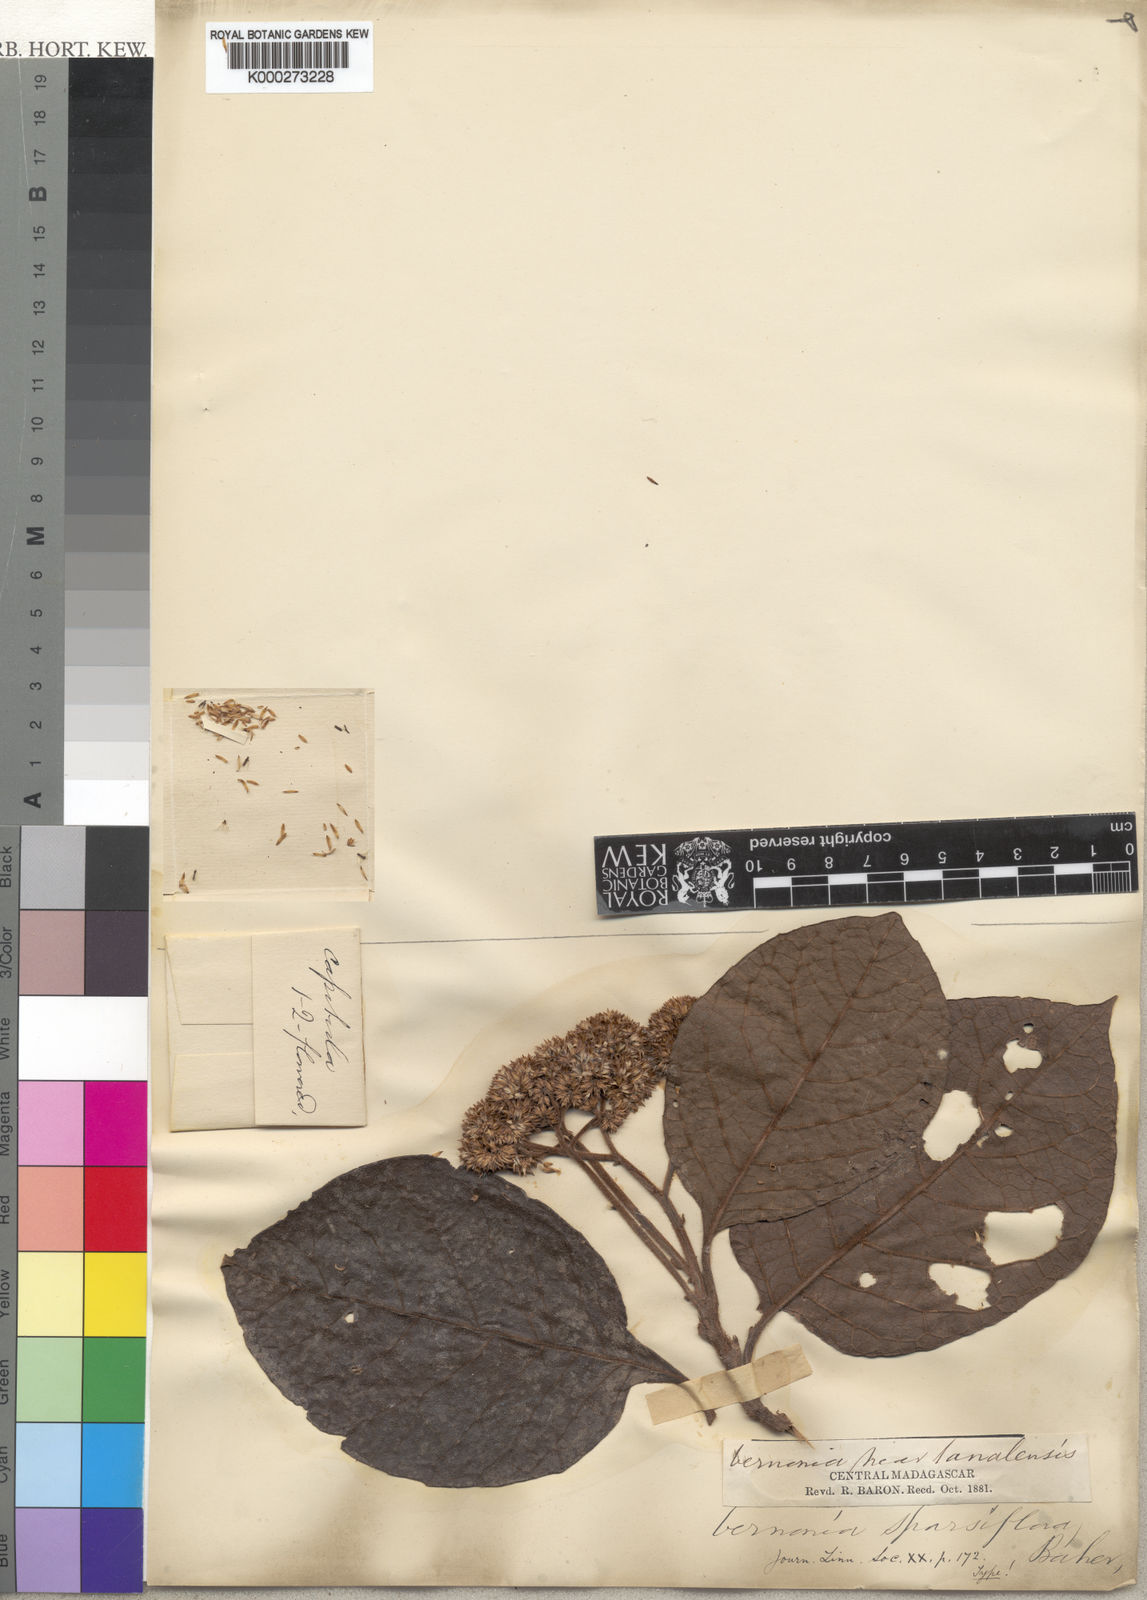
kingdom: Plantae
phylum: Tracheophyta
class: Magnoliopsida
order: Asterales
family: Asteraceae
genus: Gymnanthemum
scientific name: Gymnanthemum dissolutum
